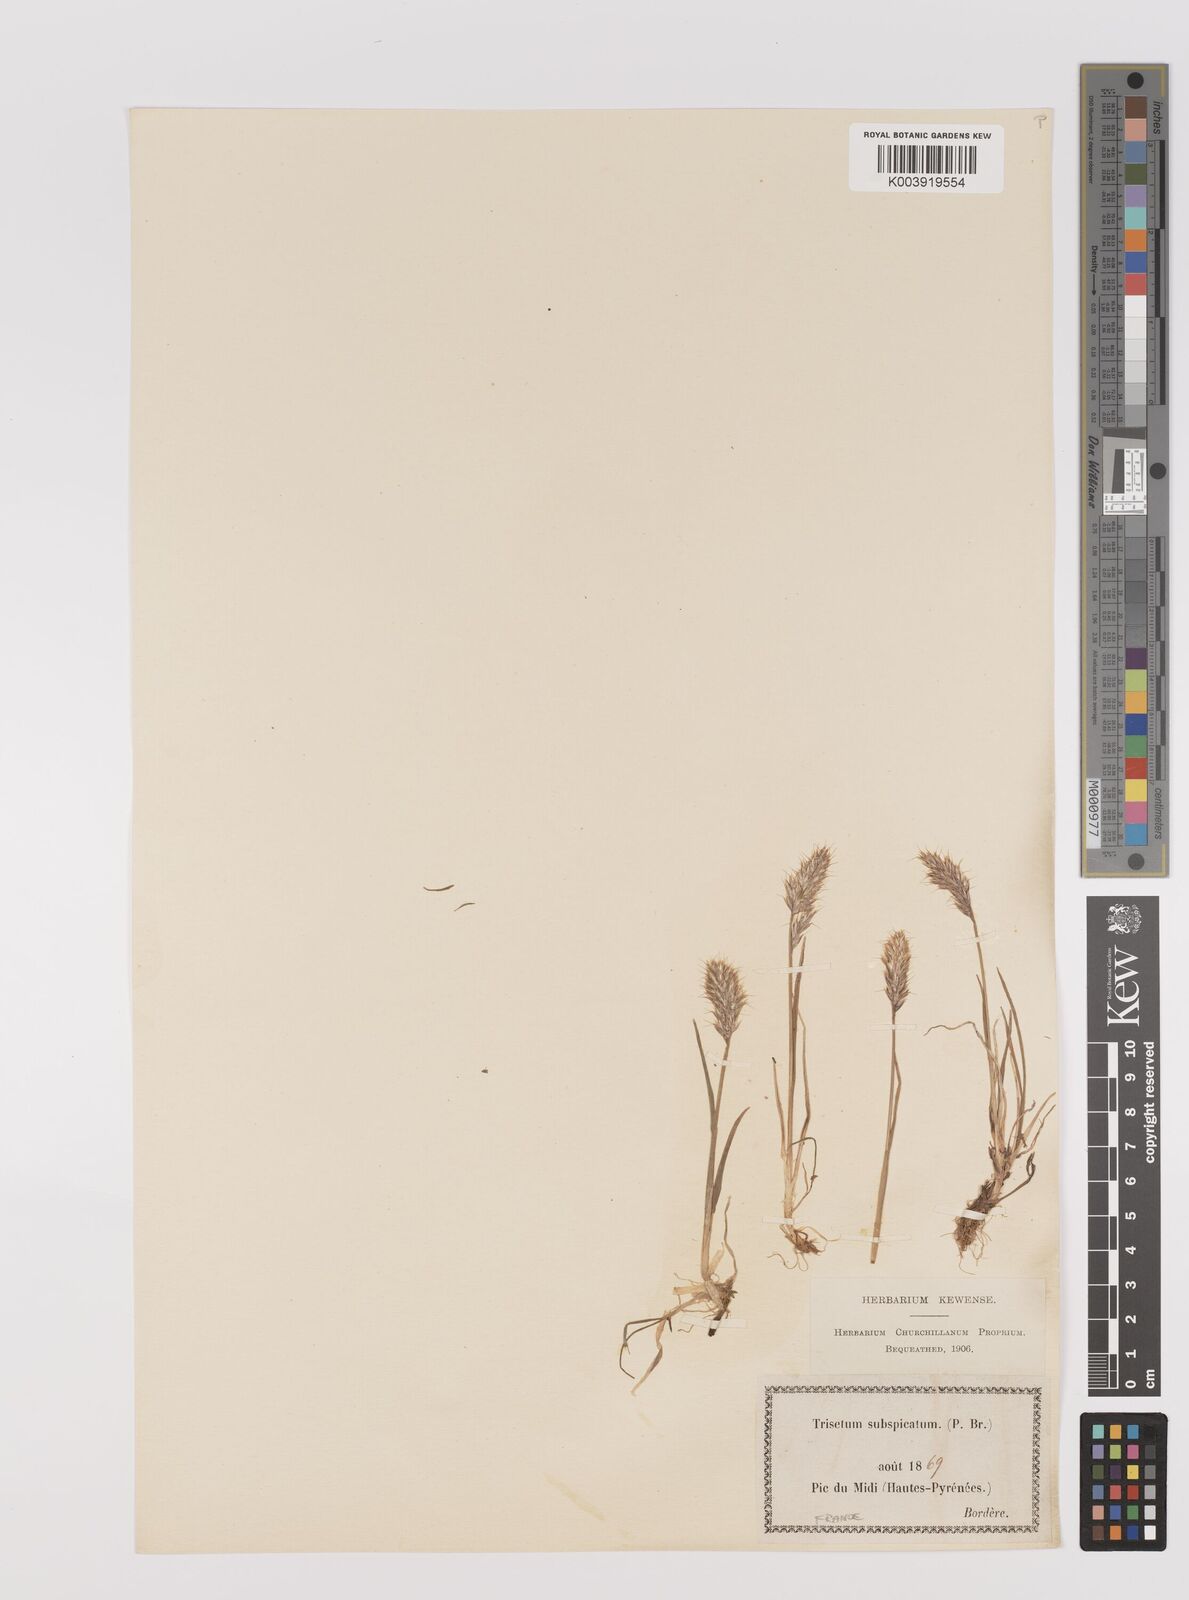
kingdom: Plantae
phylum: Tracheophyta
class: Liliopsida
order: Poales
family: Poaceae
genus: Koeleria
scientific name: Koeleria spicata
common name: Mountain trisetum
